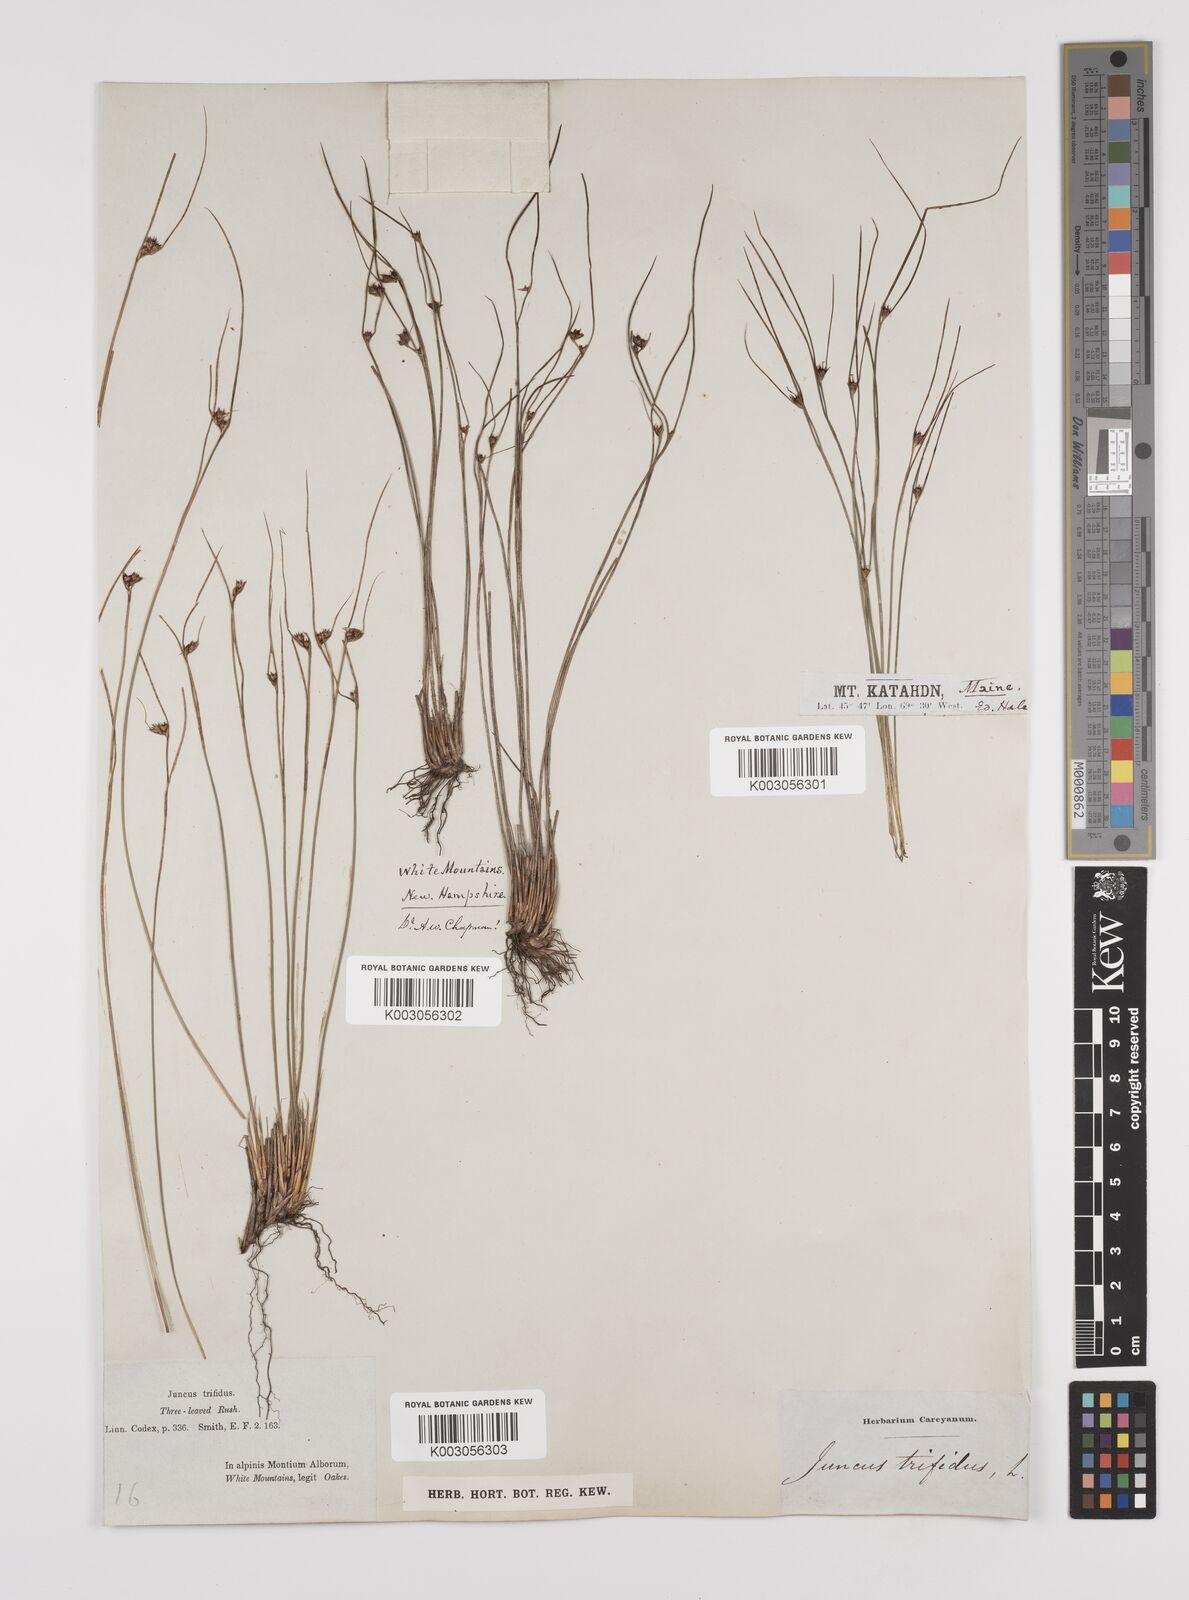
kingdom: Plantae
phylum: Tracheophyta
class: Liliopsida
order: Poales
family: Juncaceae
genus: Oreojuncus
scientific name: Oreojuncus trifidus
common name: Highland rush
